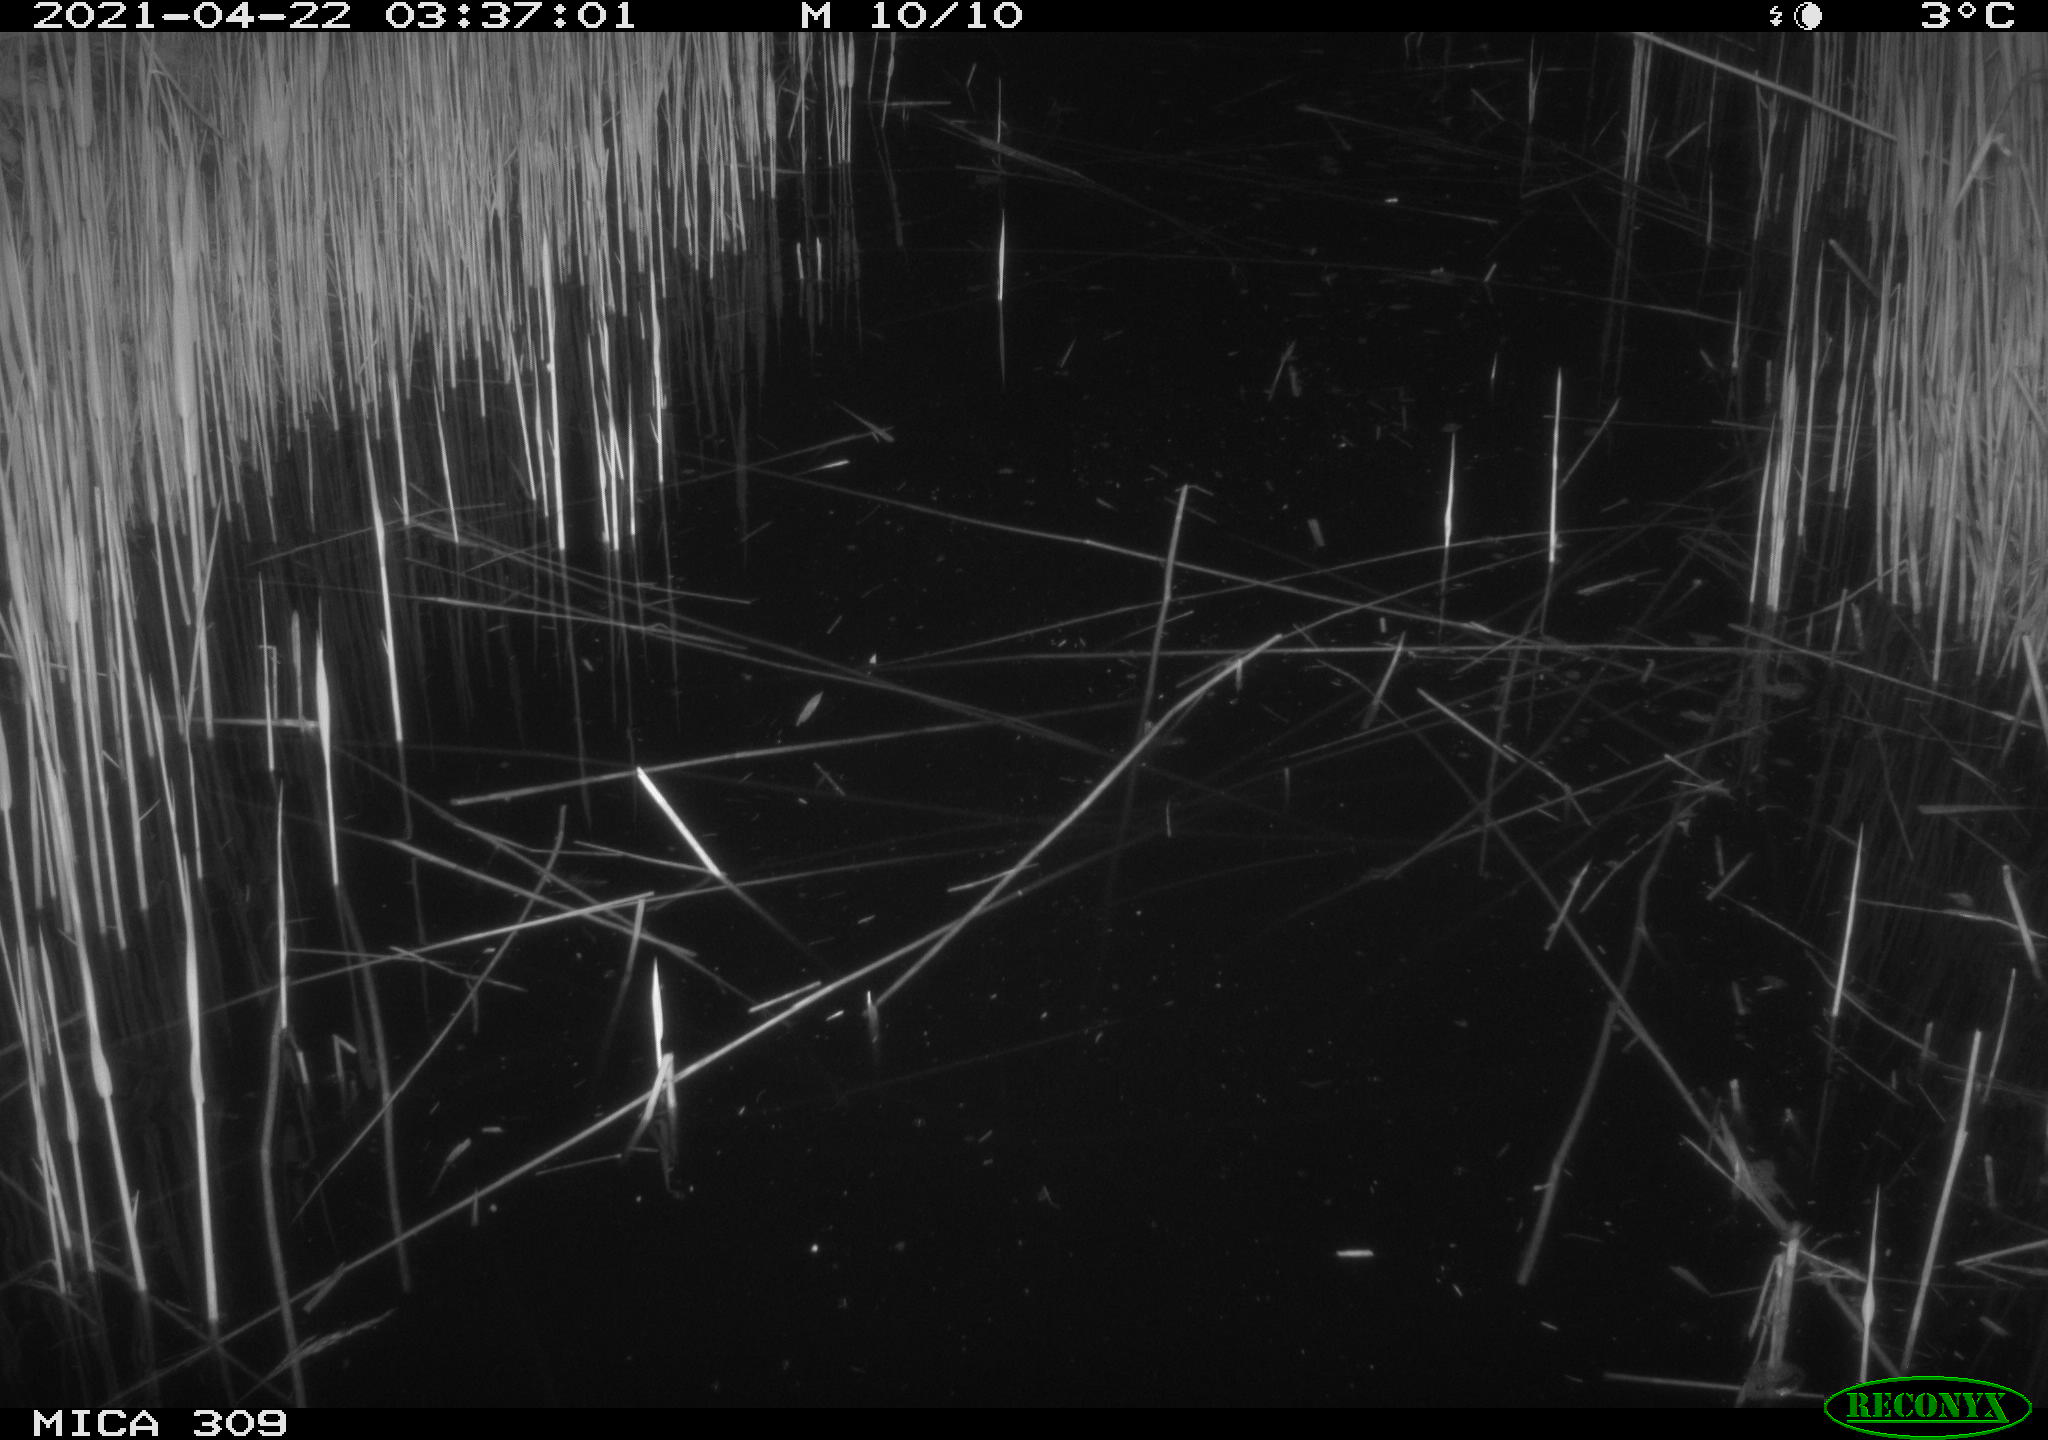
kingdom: Animalia
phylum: Chordata
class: Aves
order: Gruiformes
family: Rallidae
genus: Gallinula
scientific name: Gallinula chloropus
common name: Common moorhen
